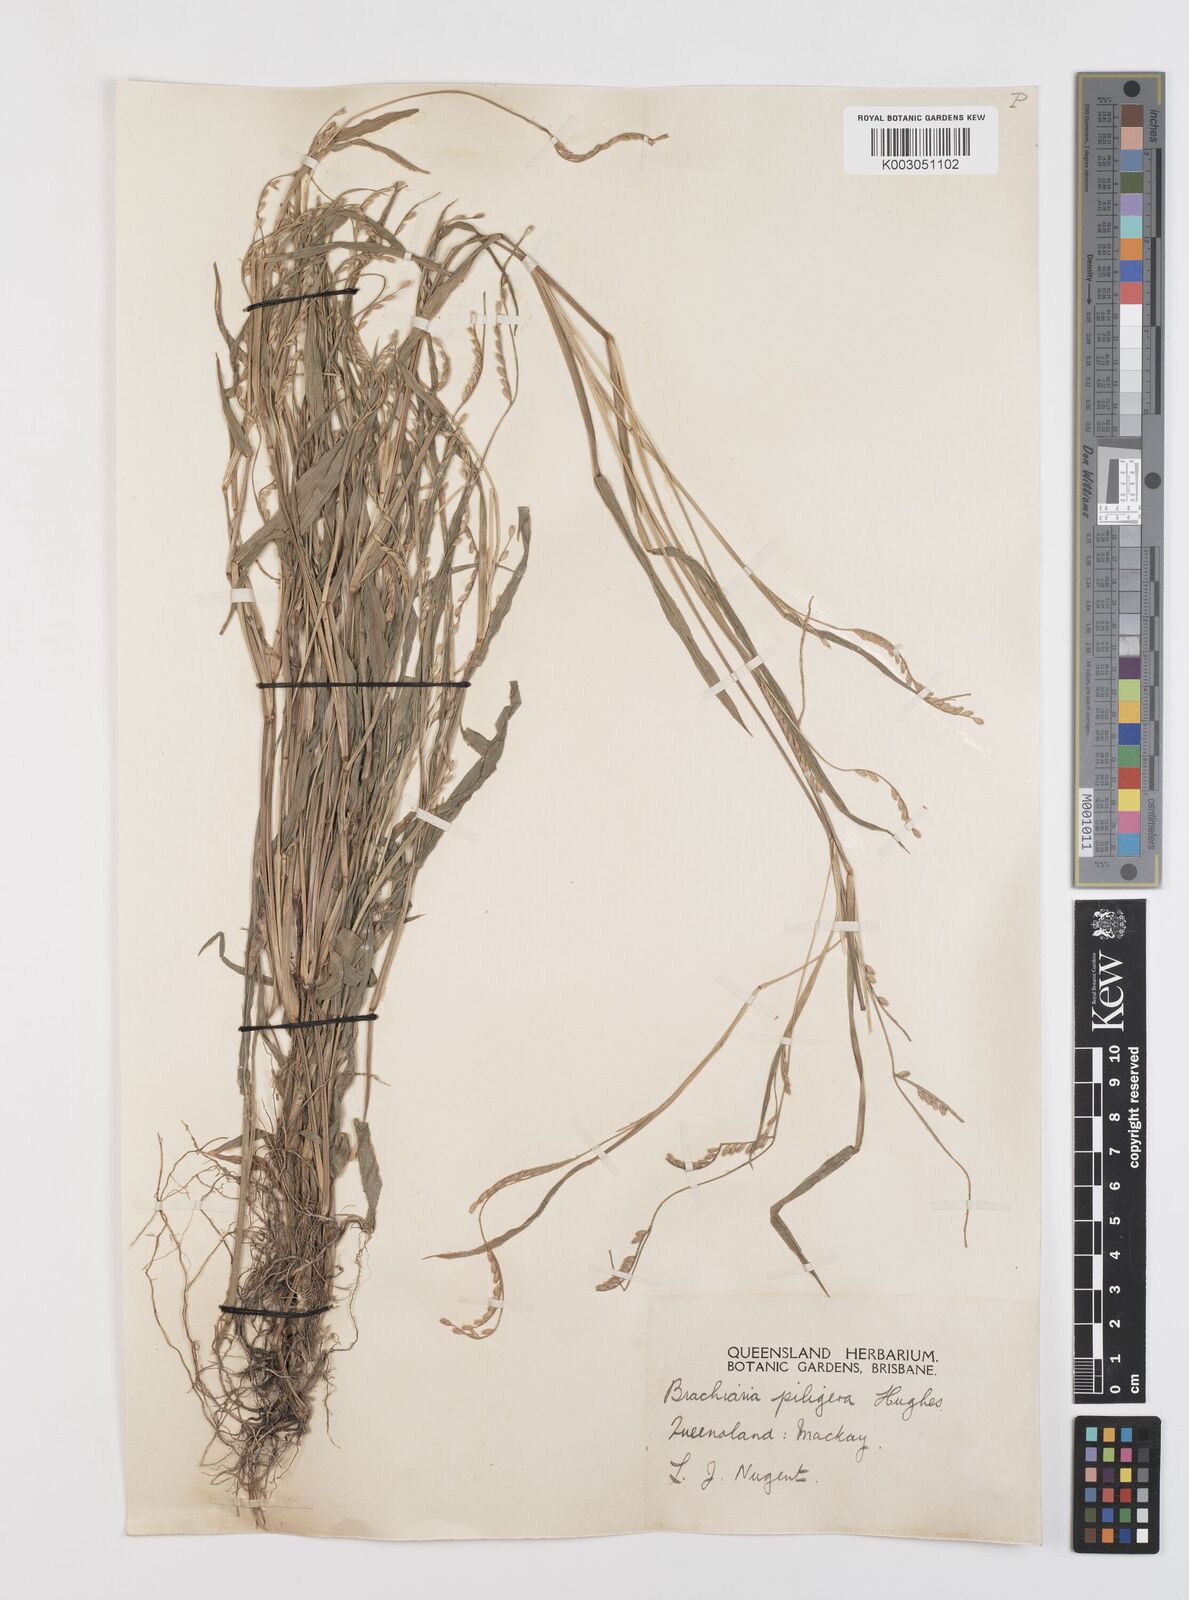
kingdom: Plantae
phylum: Tracheophyta
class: Liliopsida
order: Poales
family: Poaceae
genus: Urochloa
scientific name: Urochloa piligera
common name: Wattle signalgrass
